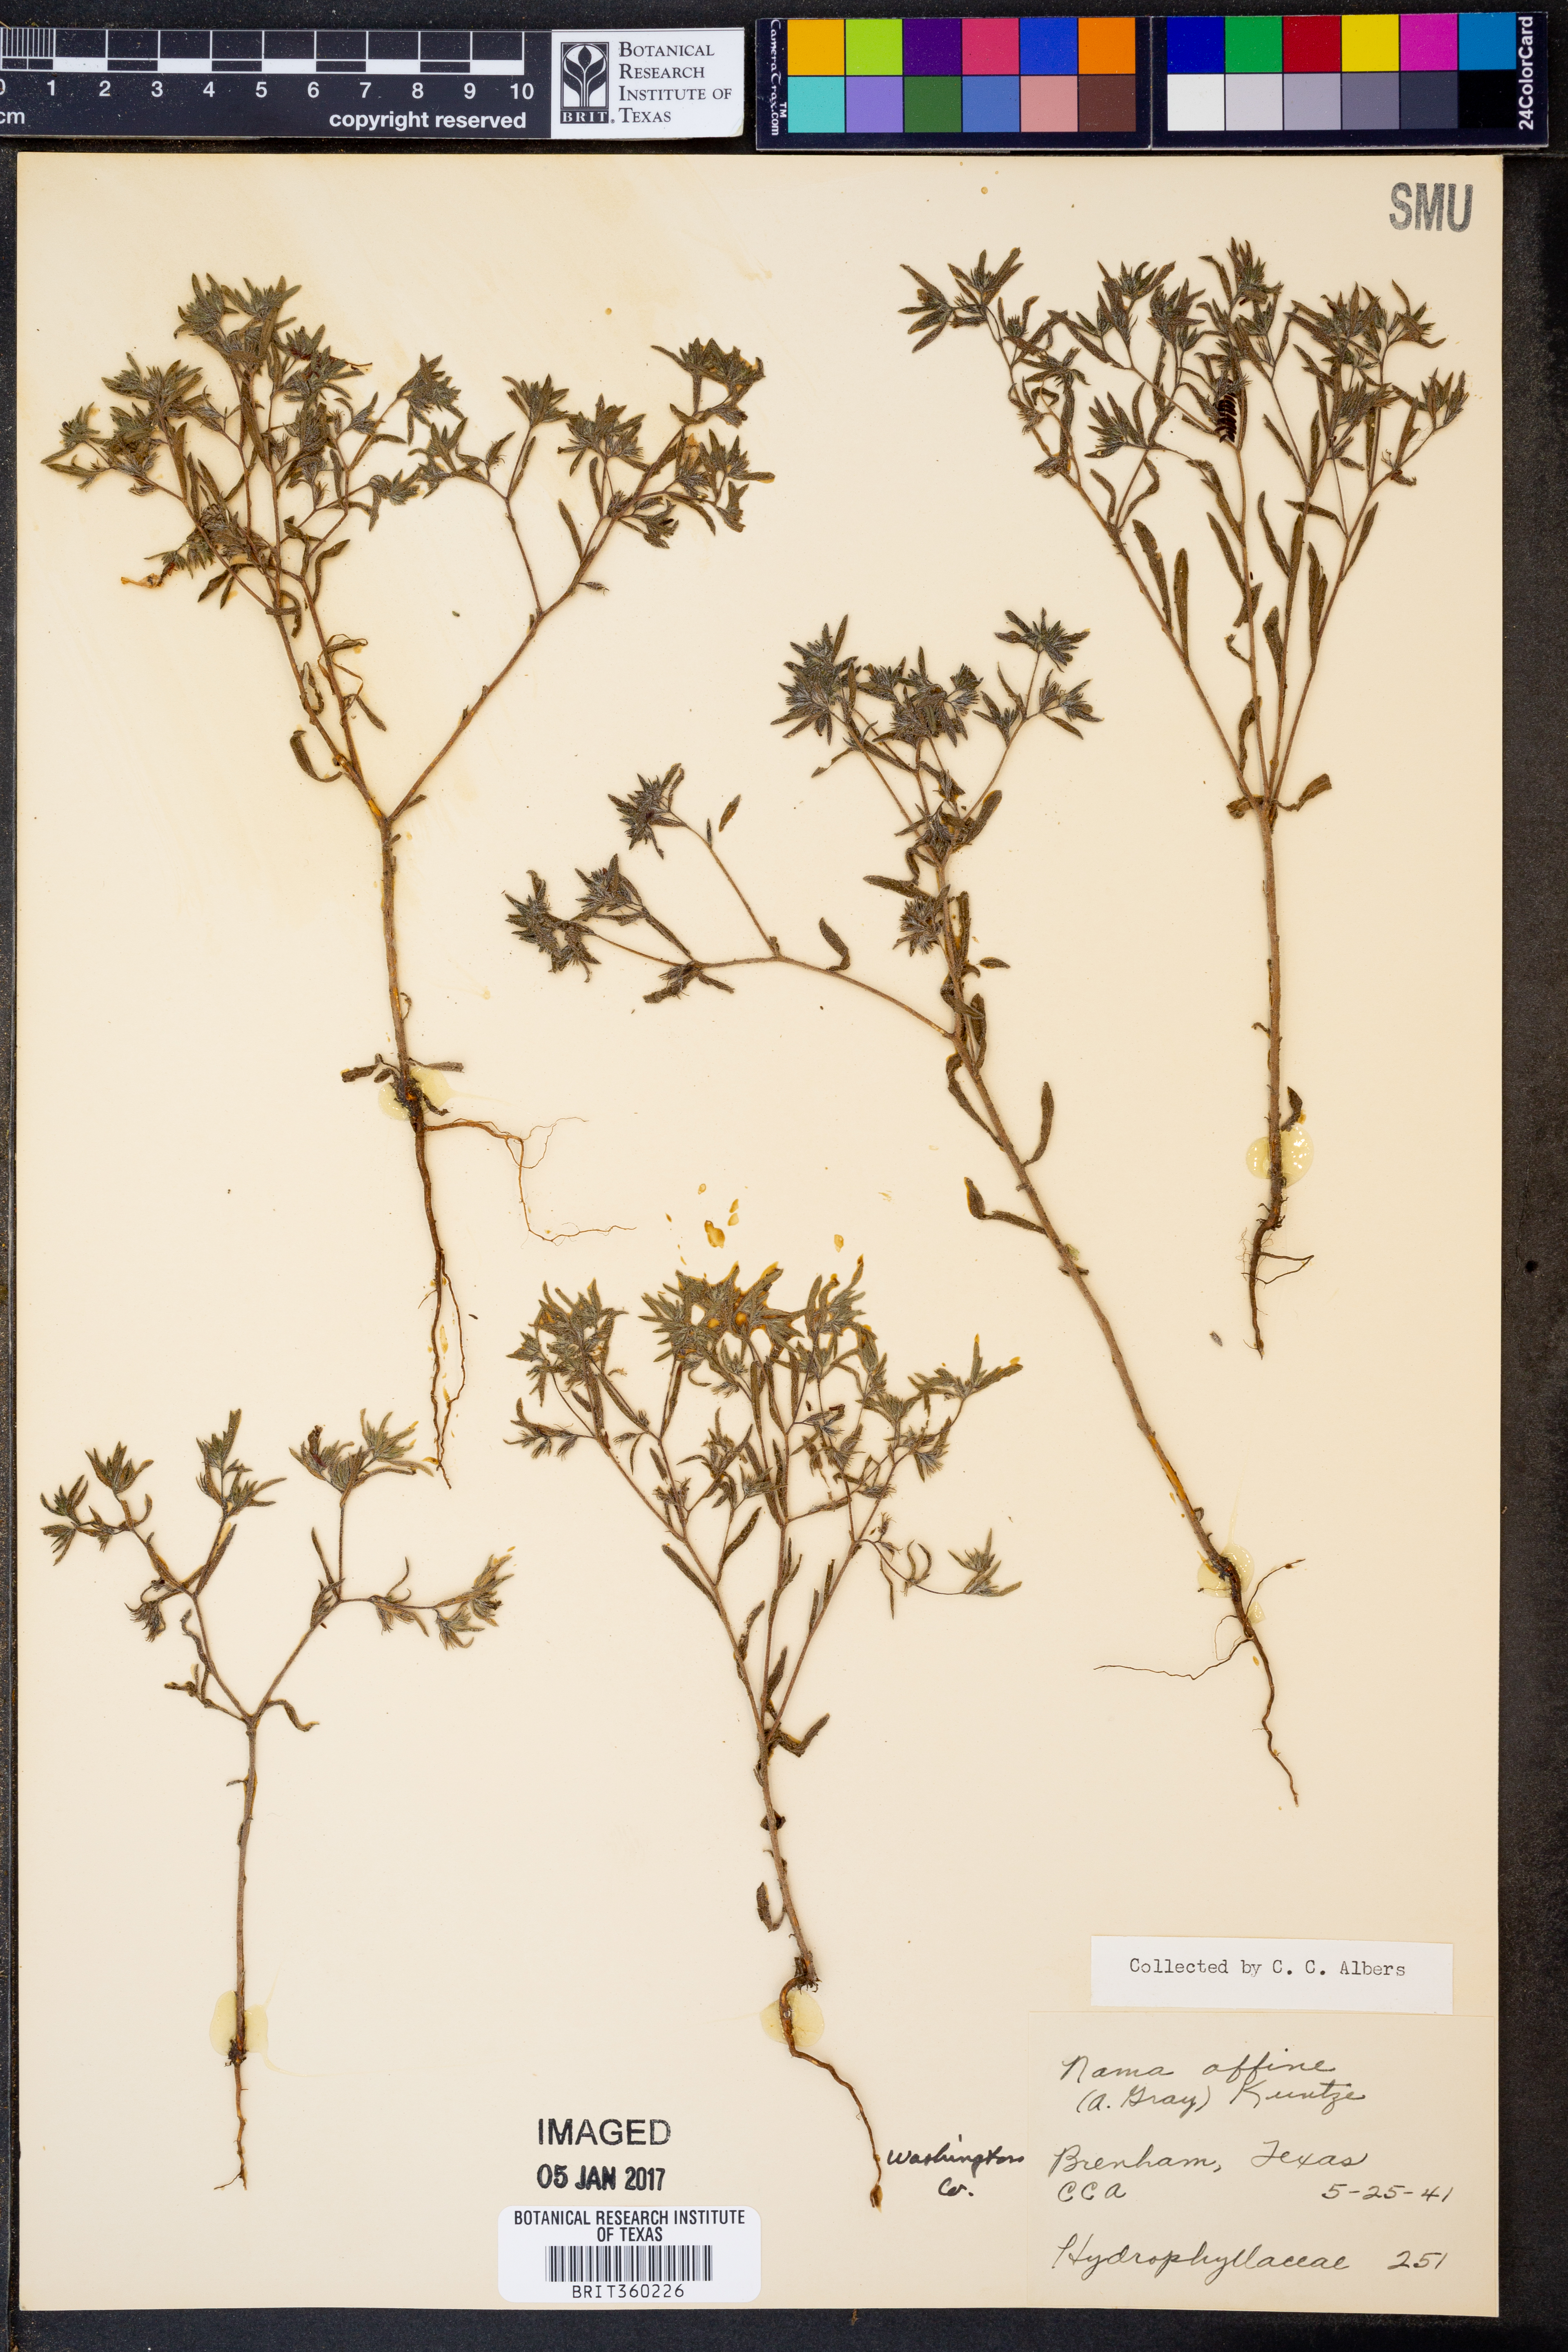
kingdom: Plantae
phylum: Tracheophyta
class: Magnoliopsida
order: Solanales
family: Hydroleaceae
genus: Hydrolea
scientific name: Hydrolea uniflora
